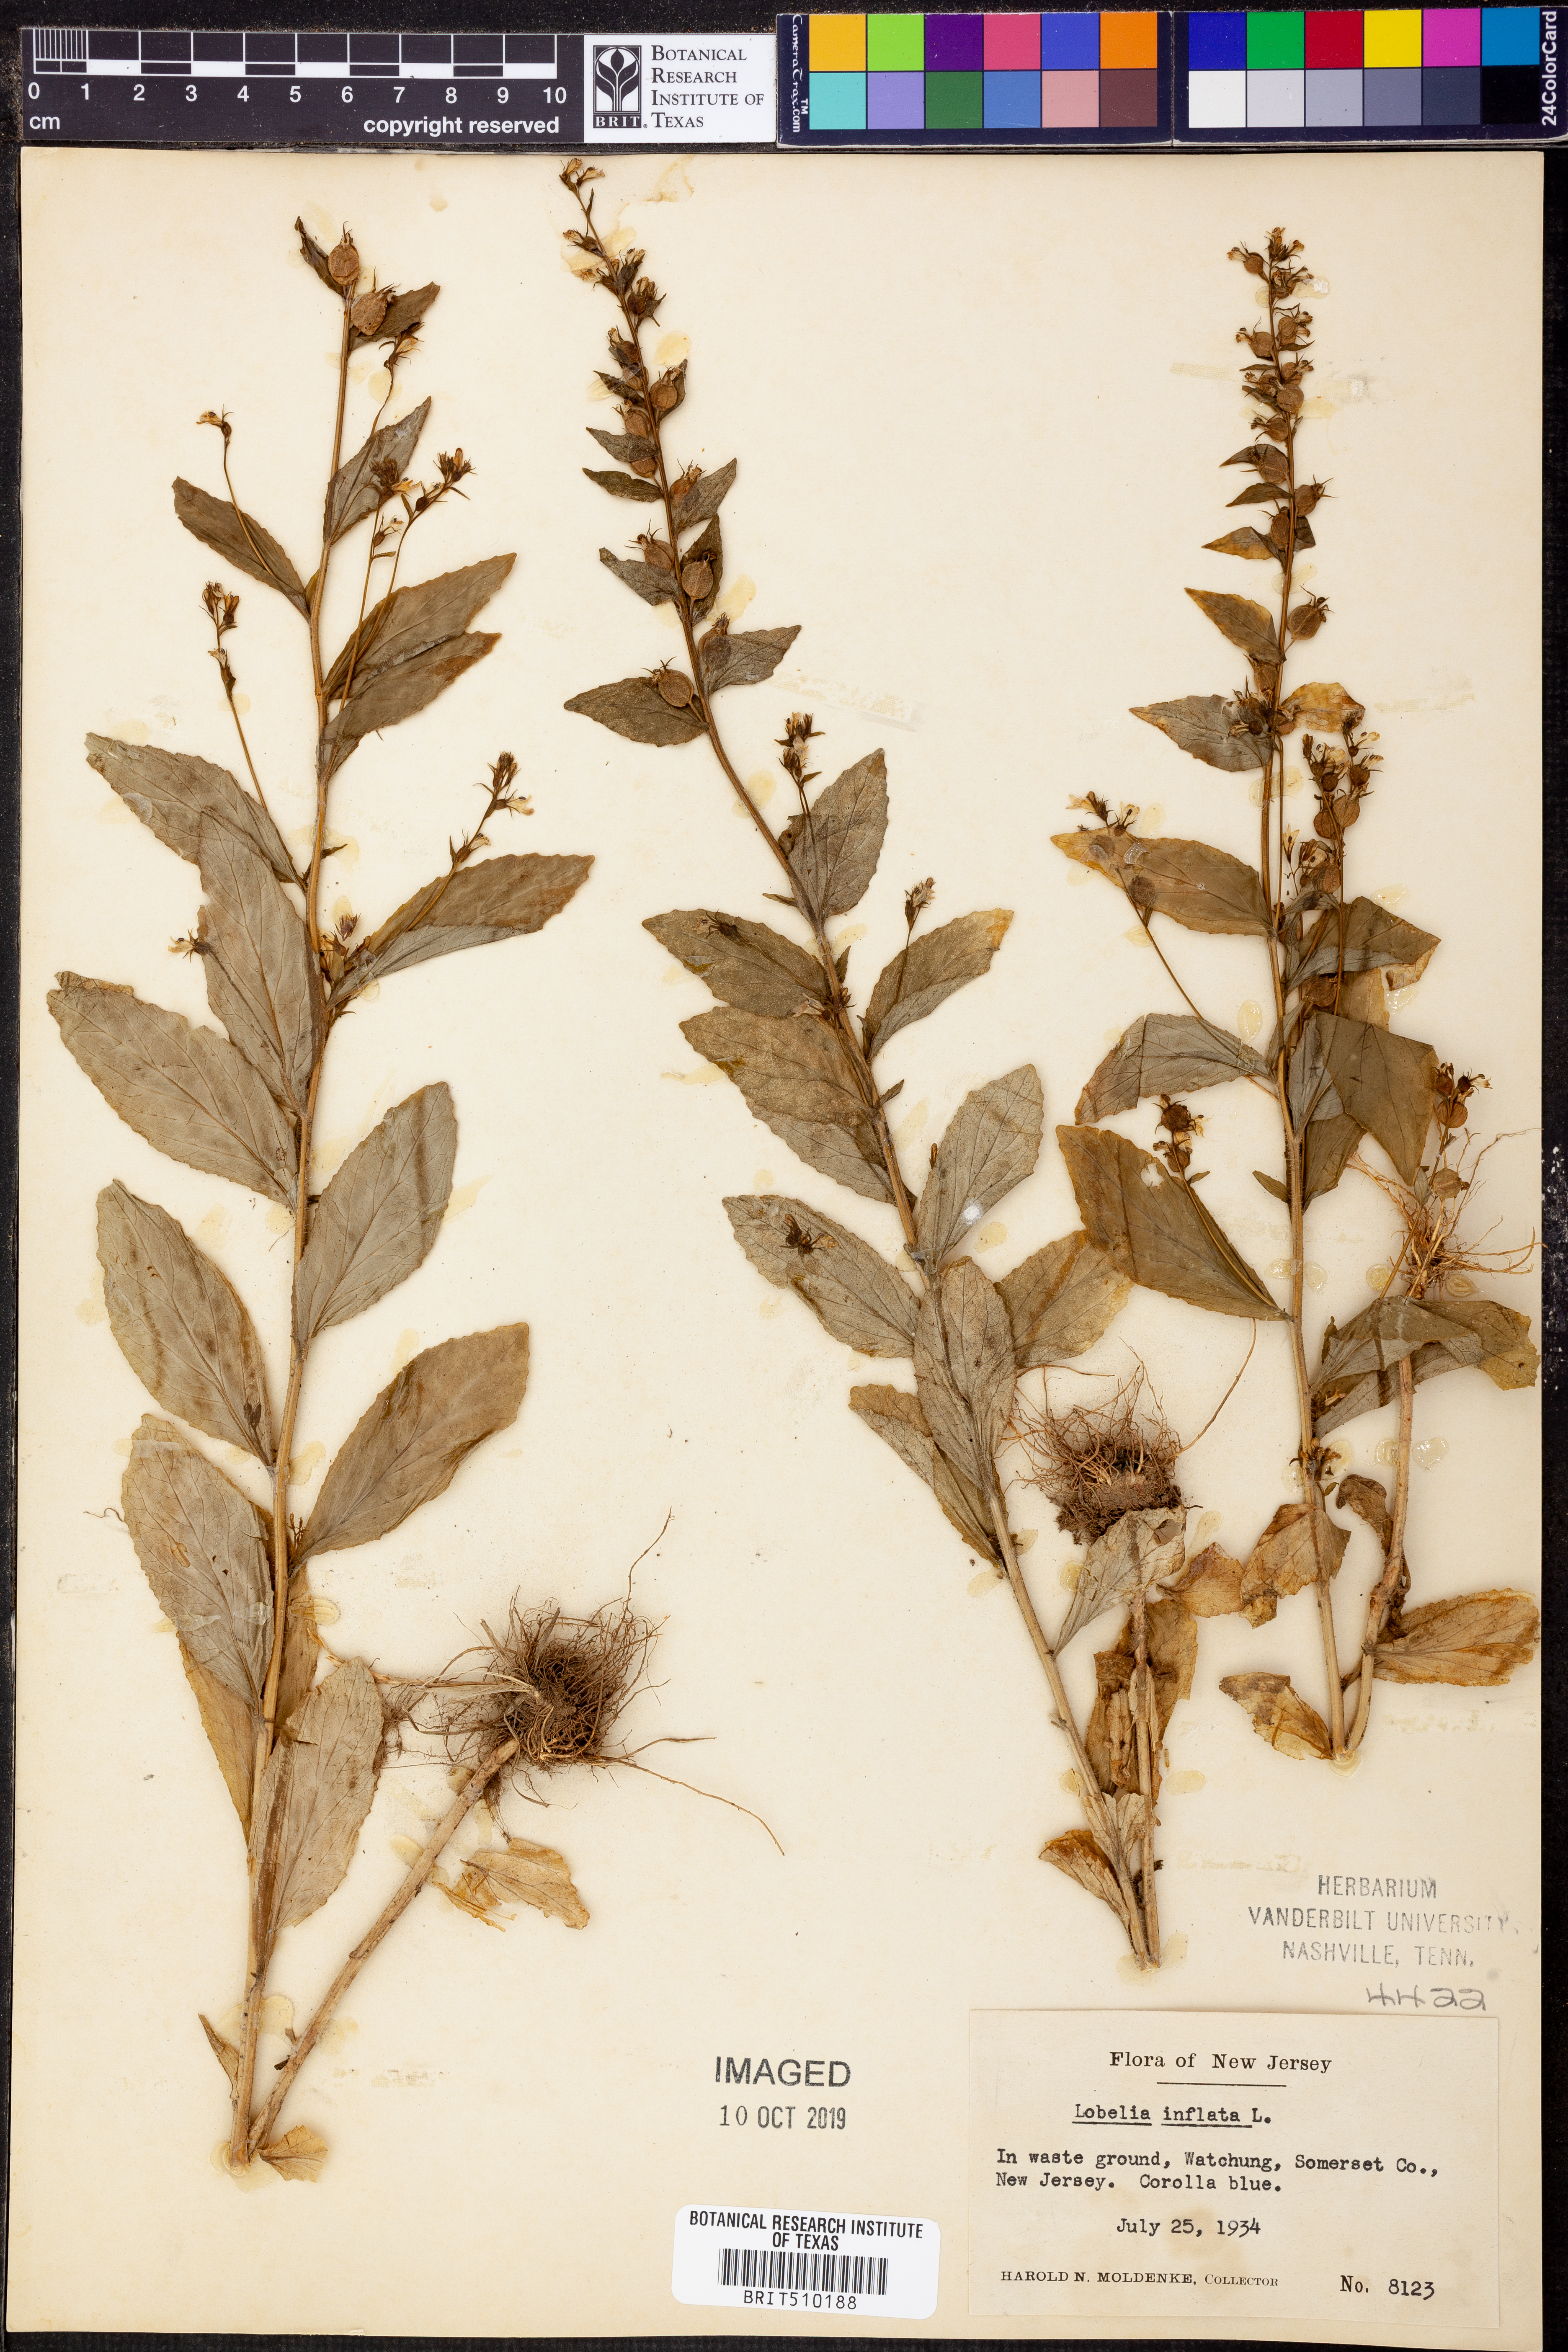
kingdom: Plantae
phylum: Tracheophyta
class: Magnoliopsida
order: Asterales
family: Campanulaceae
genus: Lobelia
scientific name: Lobelia inflata
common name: Indian tobacco
